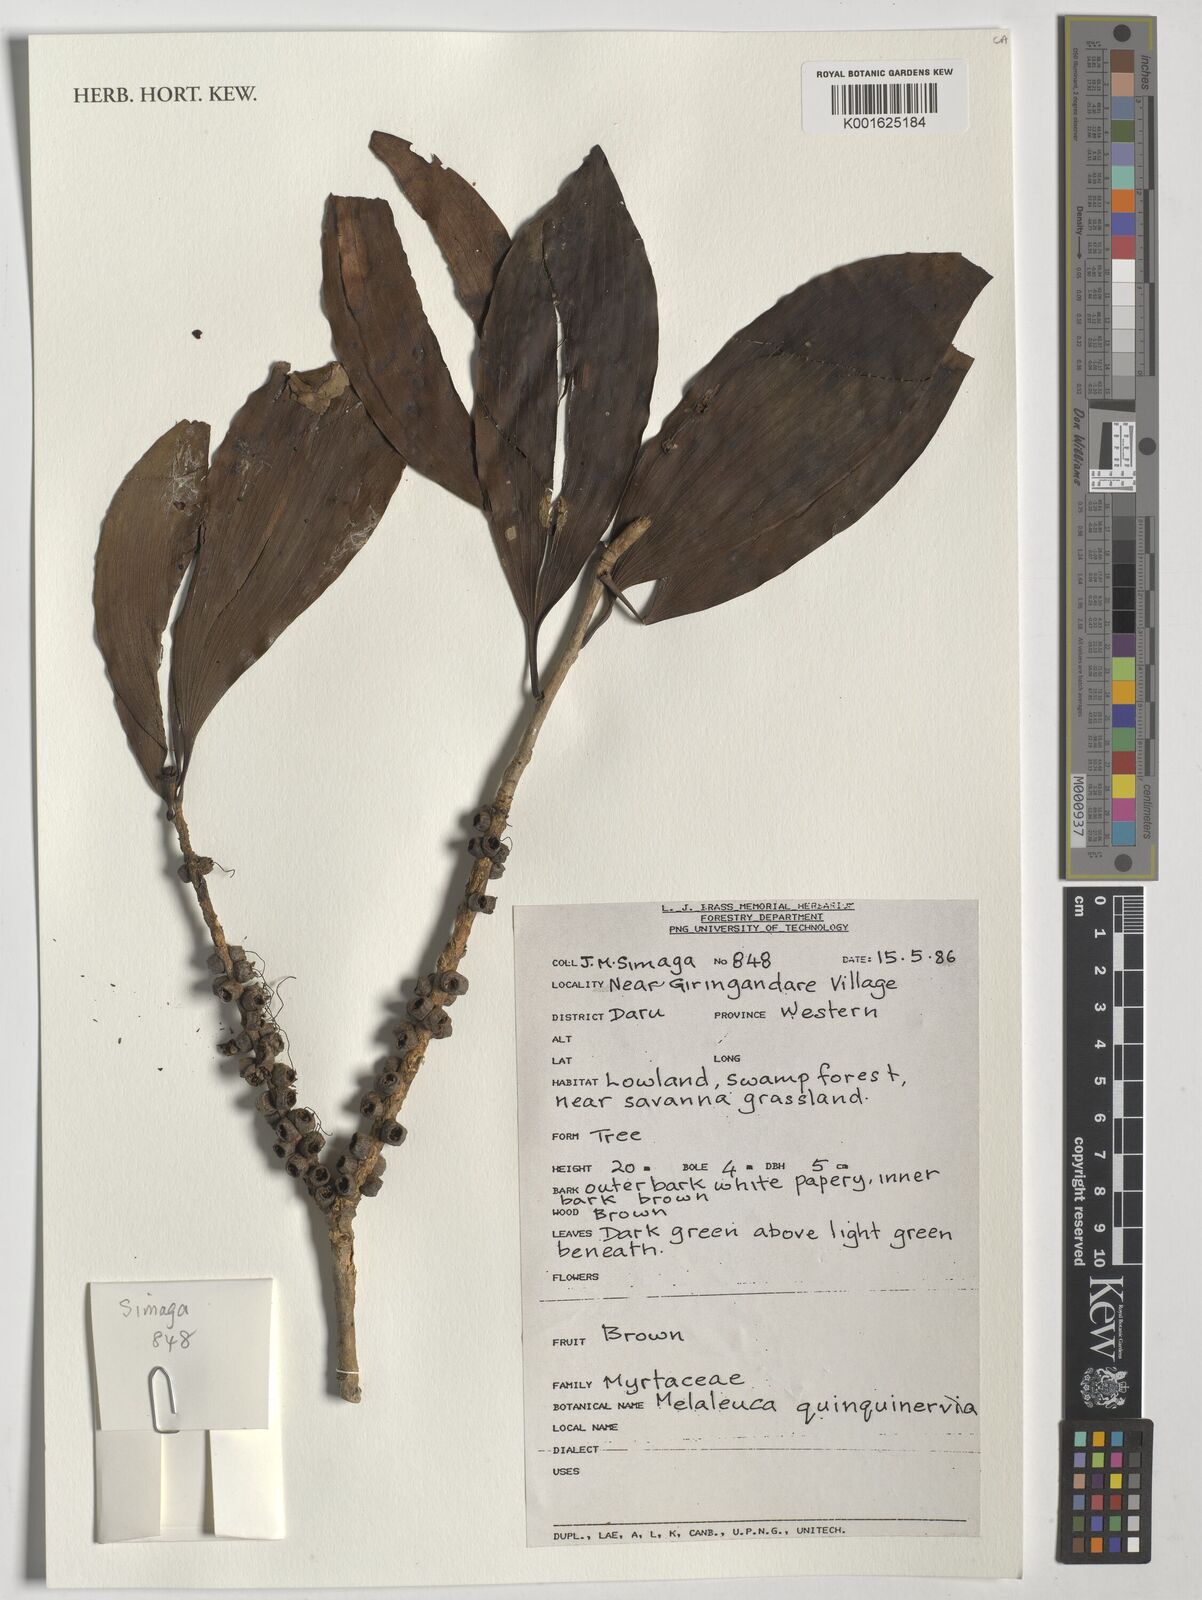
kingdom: Plantae
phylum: Tracheophyta
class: Magnoliopsida
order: Myrtales
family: Myrtaceae
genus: Melaleuca
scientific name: Melaleuca quinquenervia
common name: Punktree
